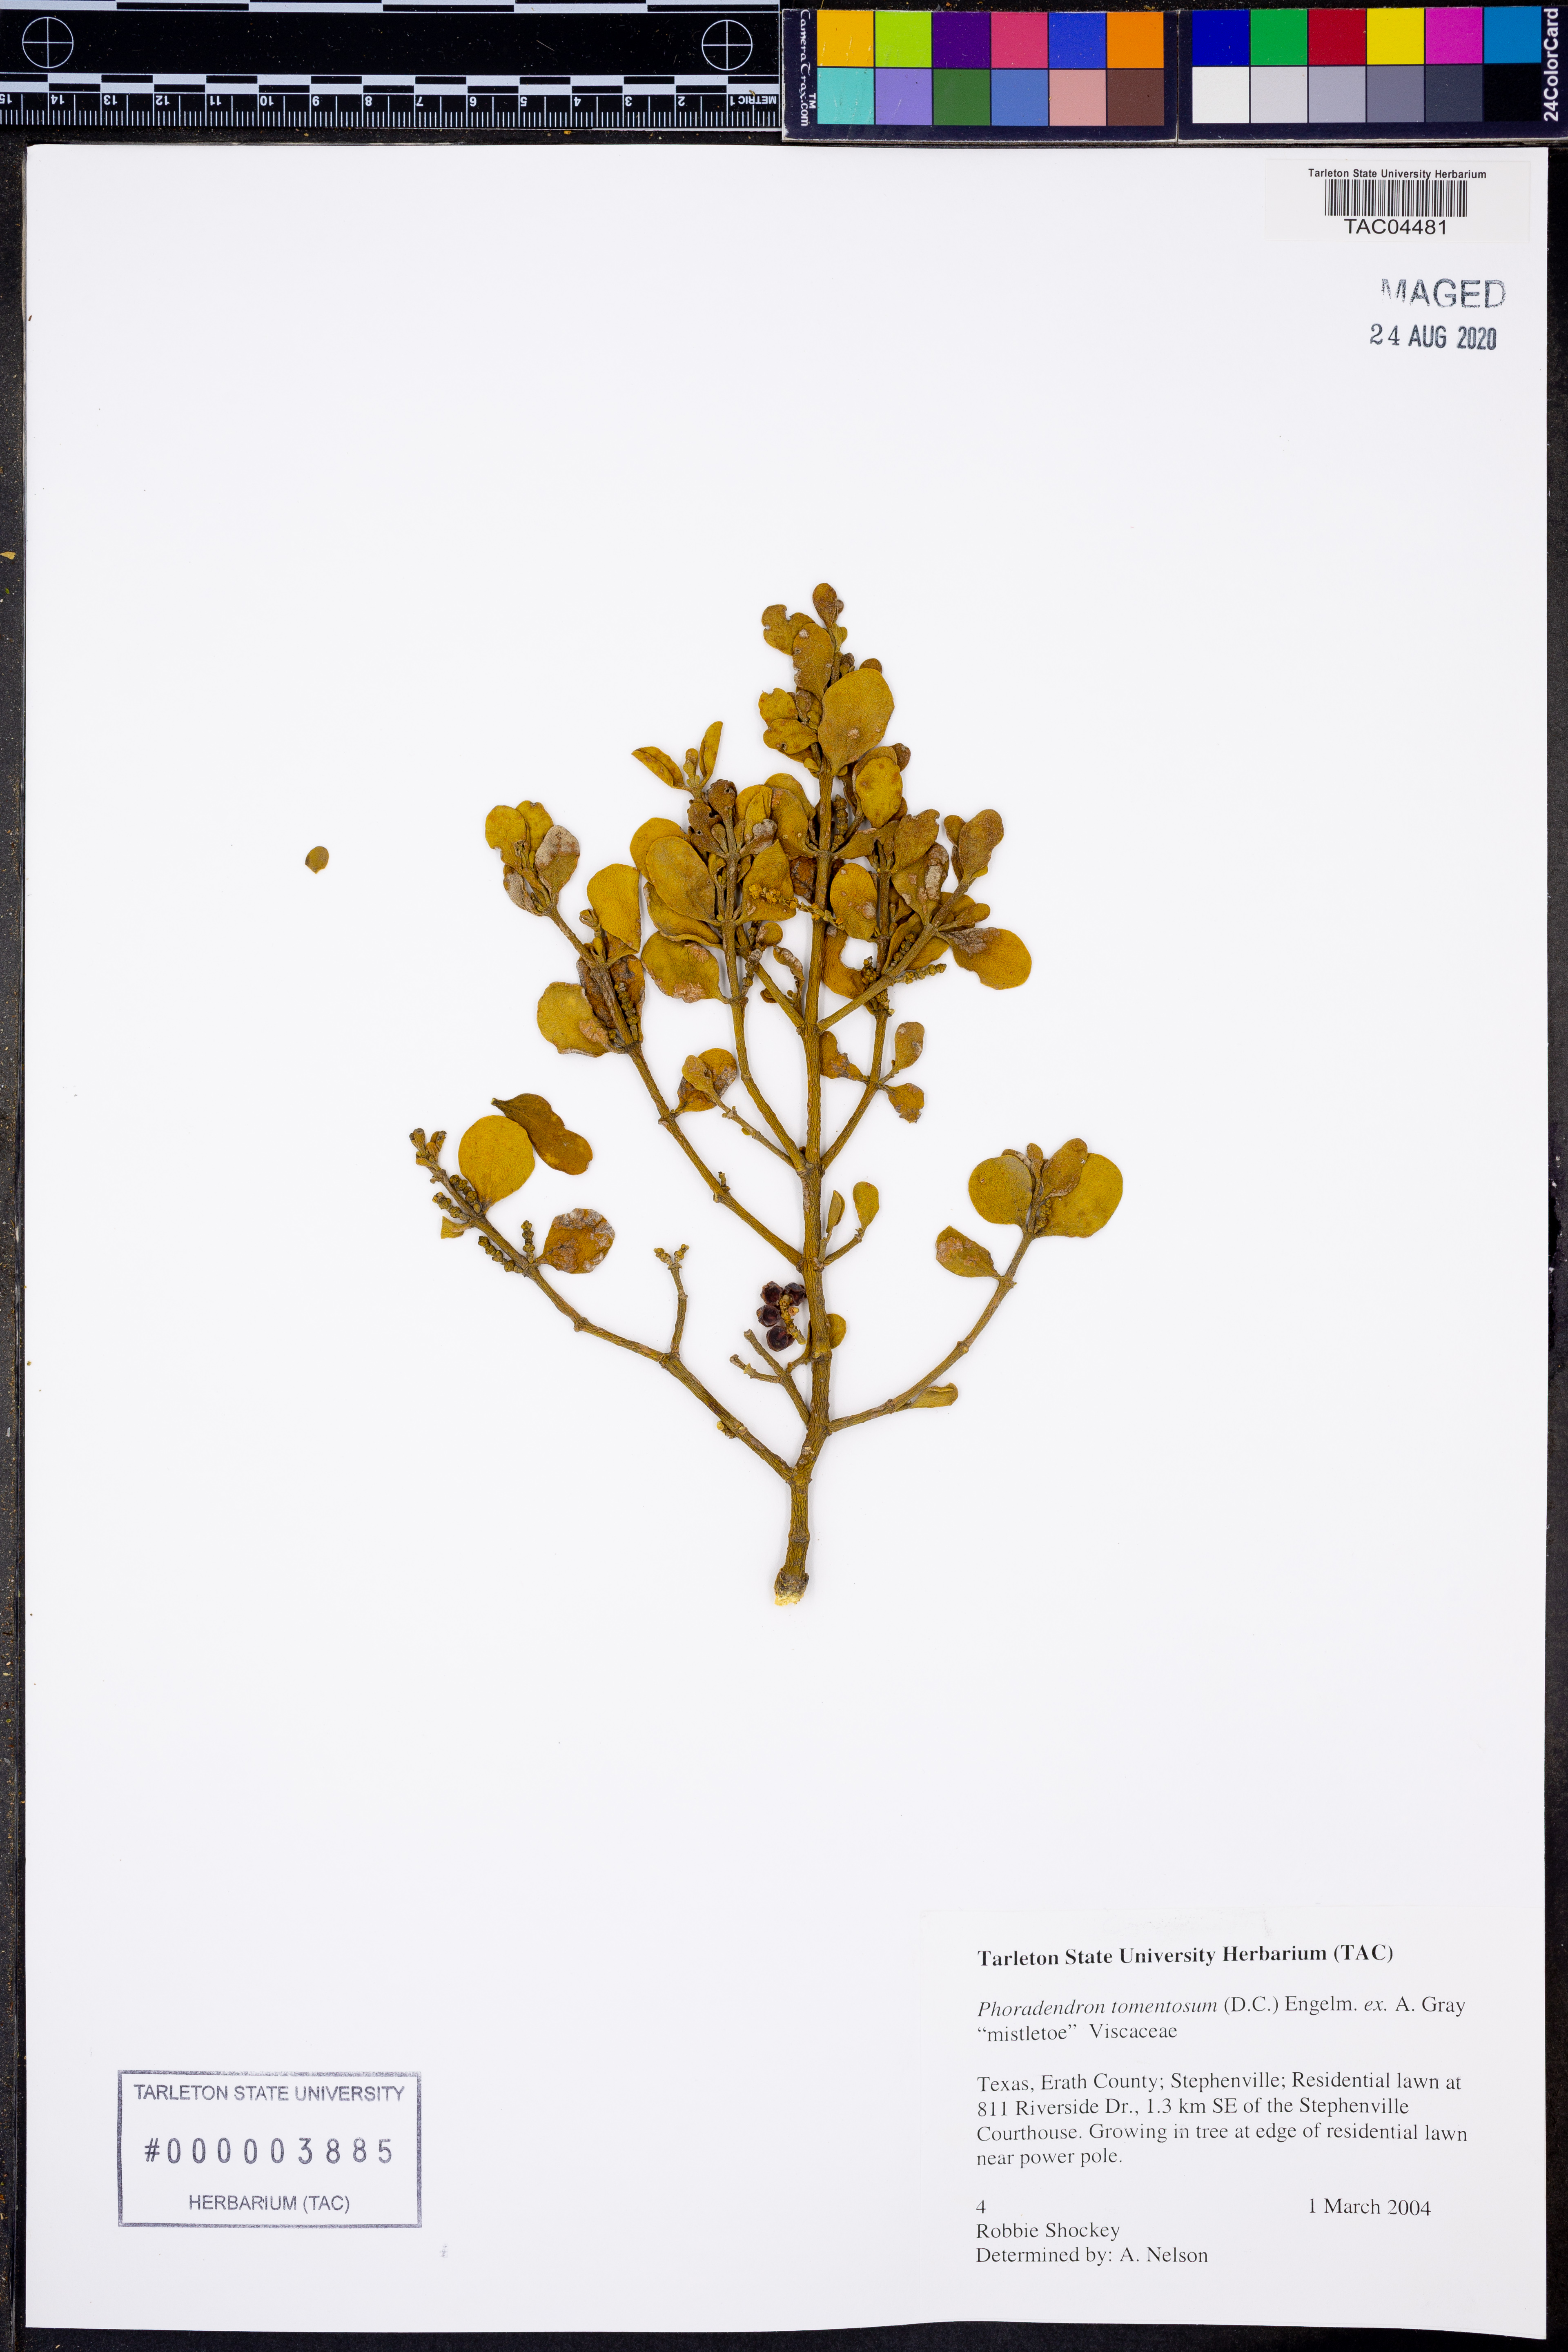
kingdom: Plantae
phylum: Tracheophyta
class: Magnoliopsida
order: Santalales
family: Viscaceae
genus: Phoradendron
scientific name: Phoradendron leucarpum
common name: Pacific mistletoe
